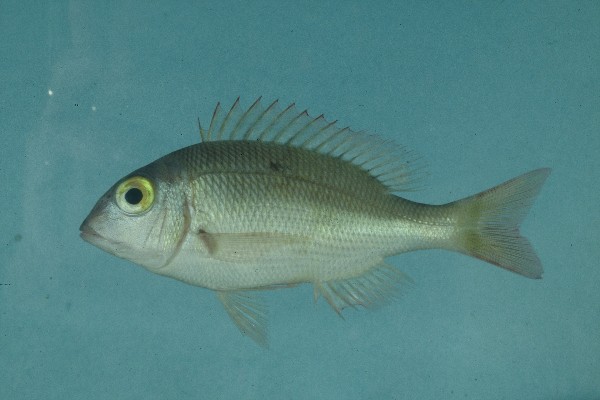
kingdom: Animalia
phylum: Chordata
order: Perciformes
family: Lethrinidae
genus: Lethrinus
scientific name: Lethrinus borbonicus
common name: Snubnose emperor
